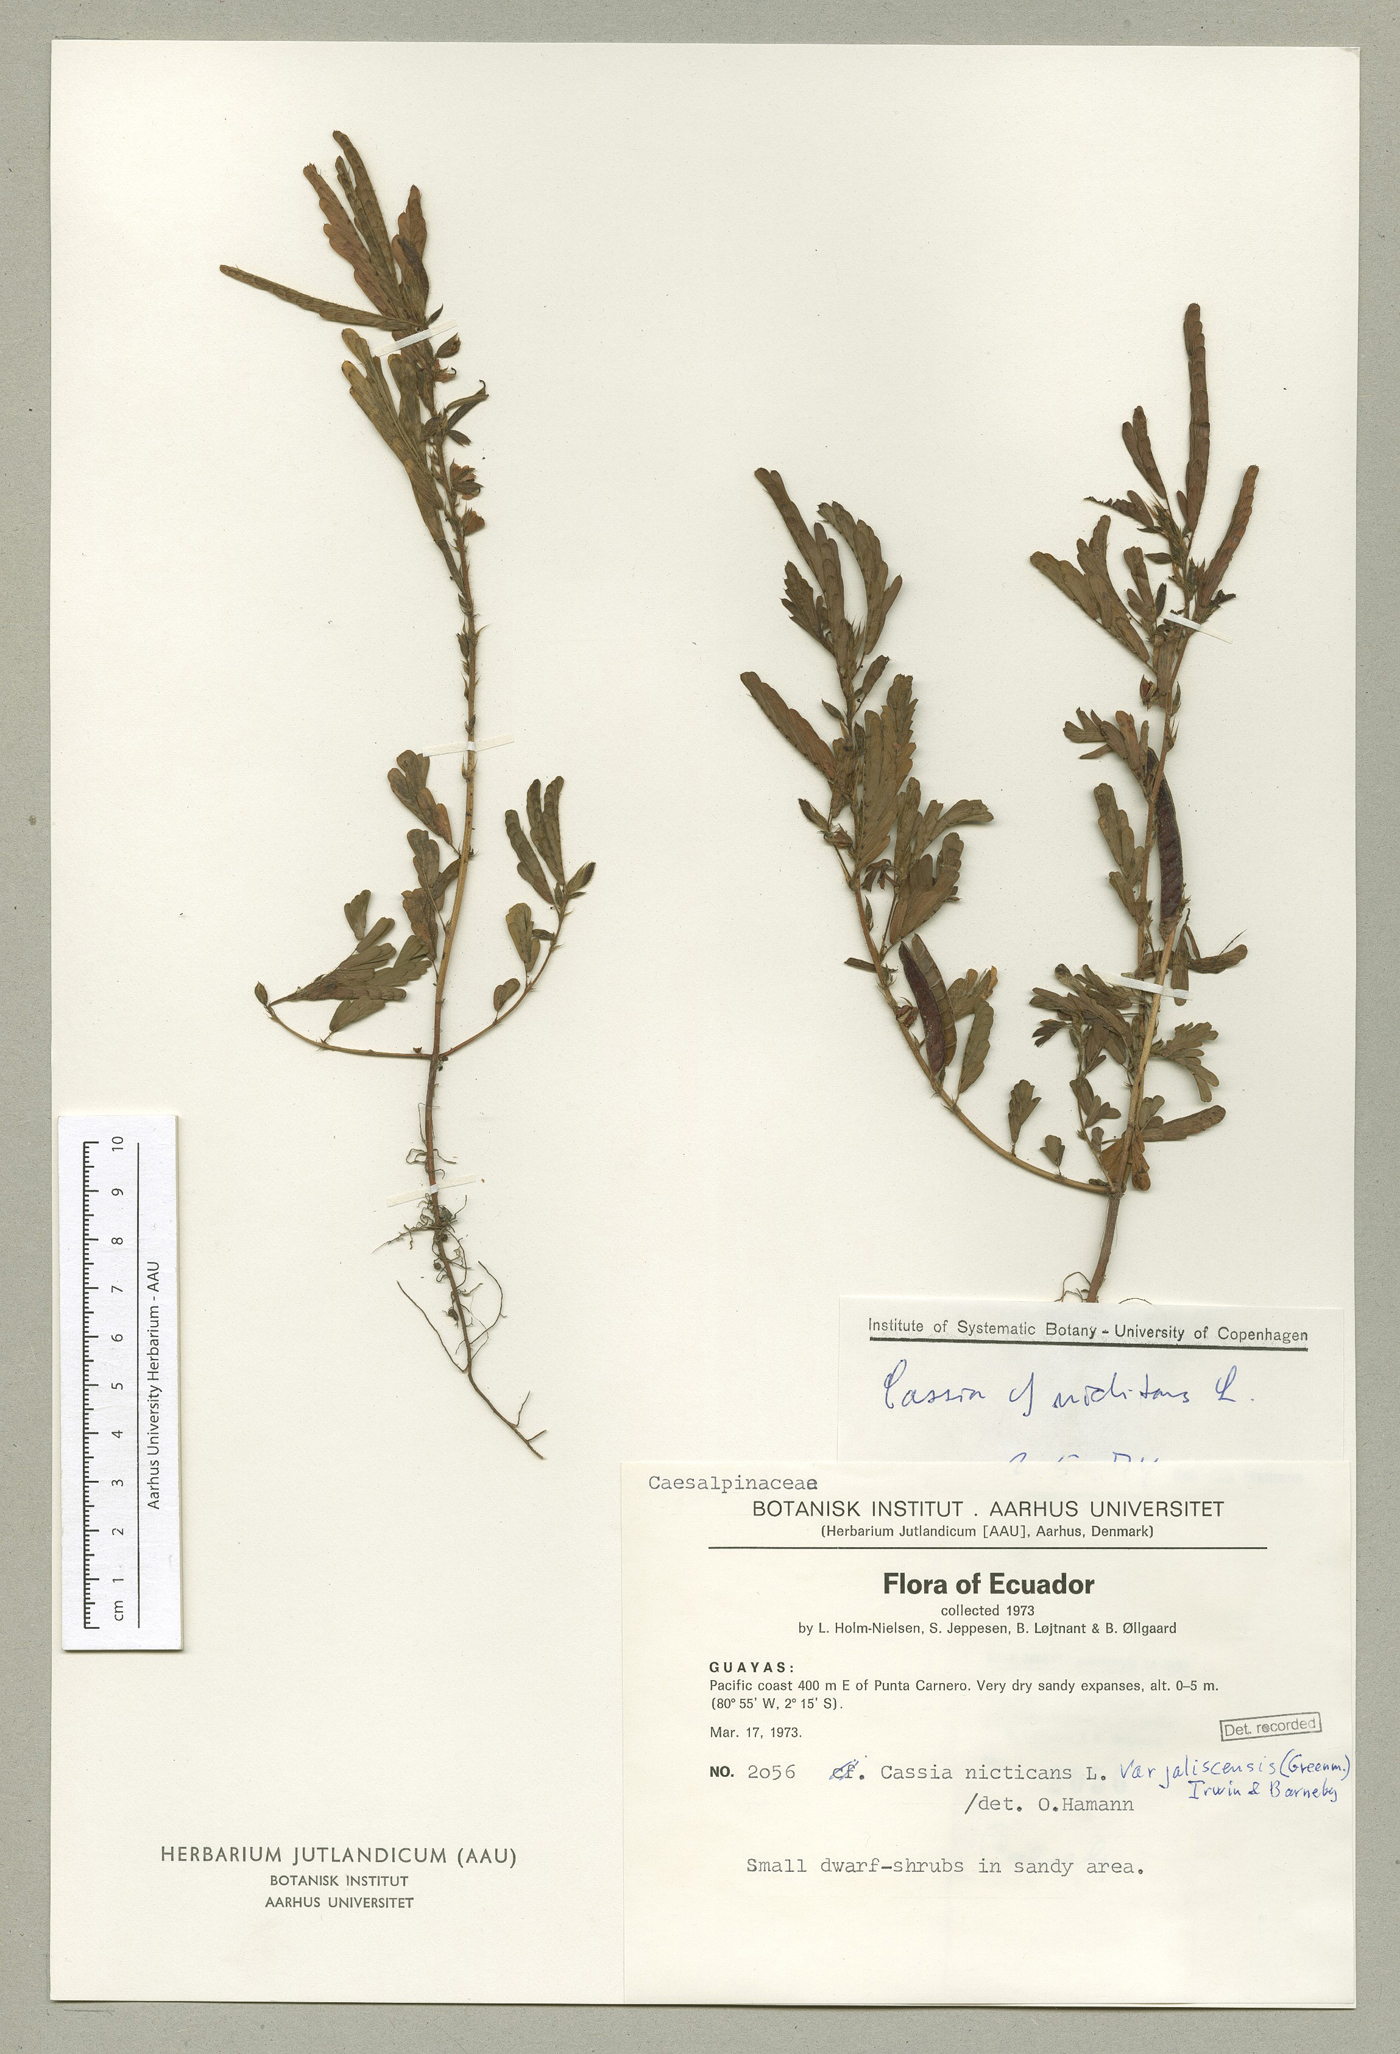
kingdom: Plantae
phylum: Tracheophyta
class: Magnoliopsida
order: Fabales
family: Fabaceae
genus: Chamaecrista
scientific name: Chamaecrista nictitans
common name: Sensitive cassia
